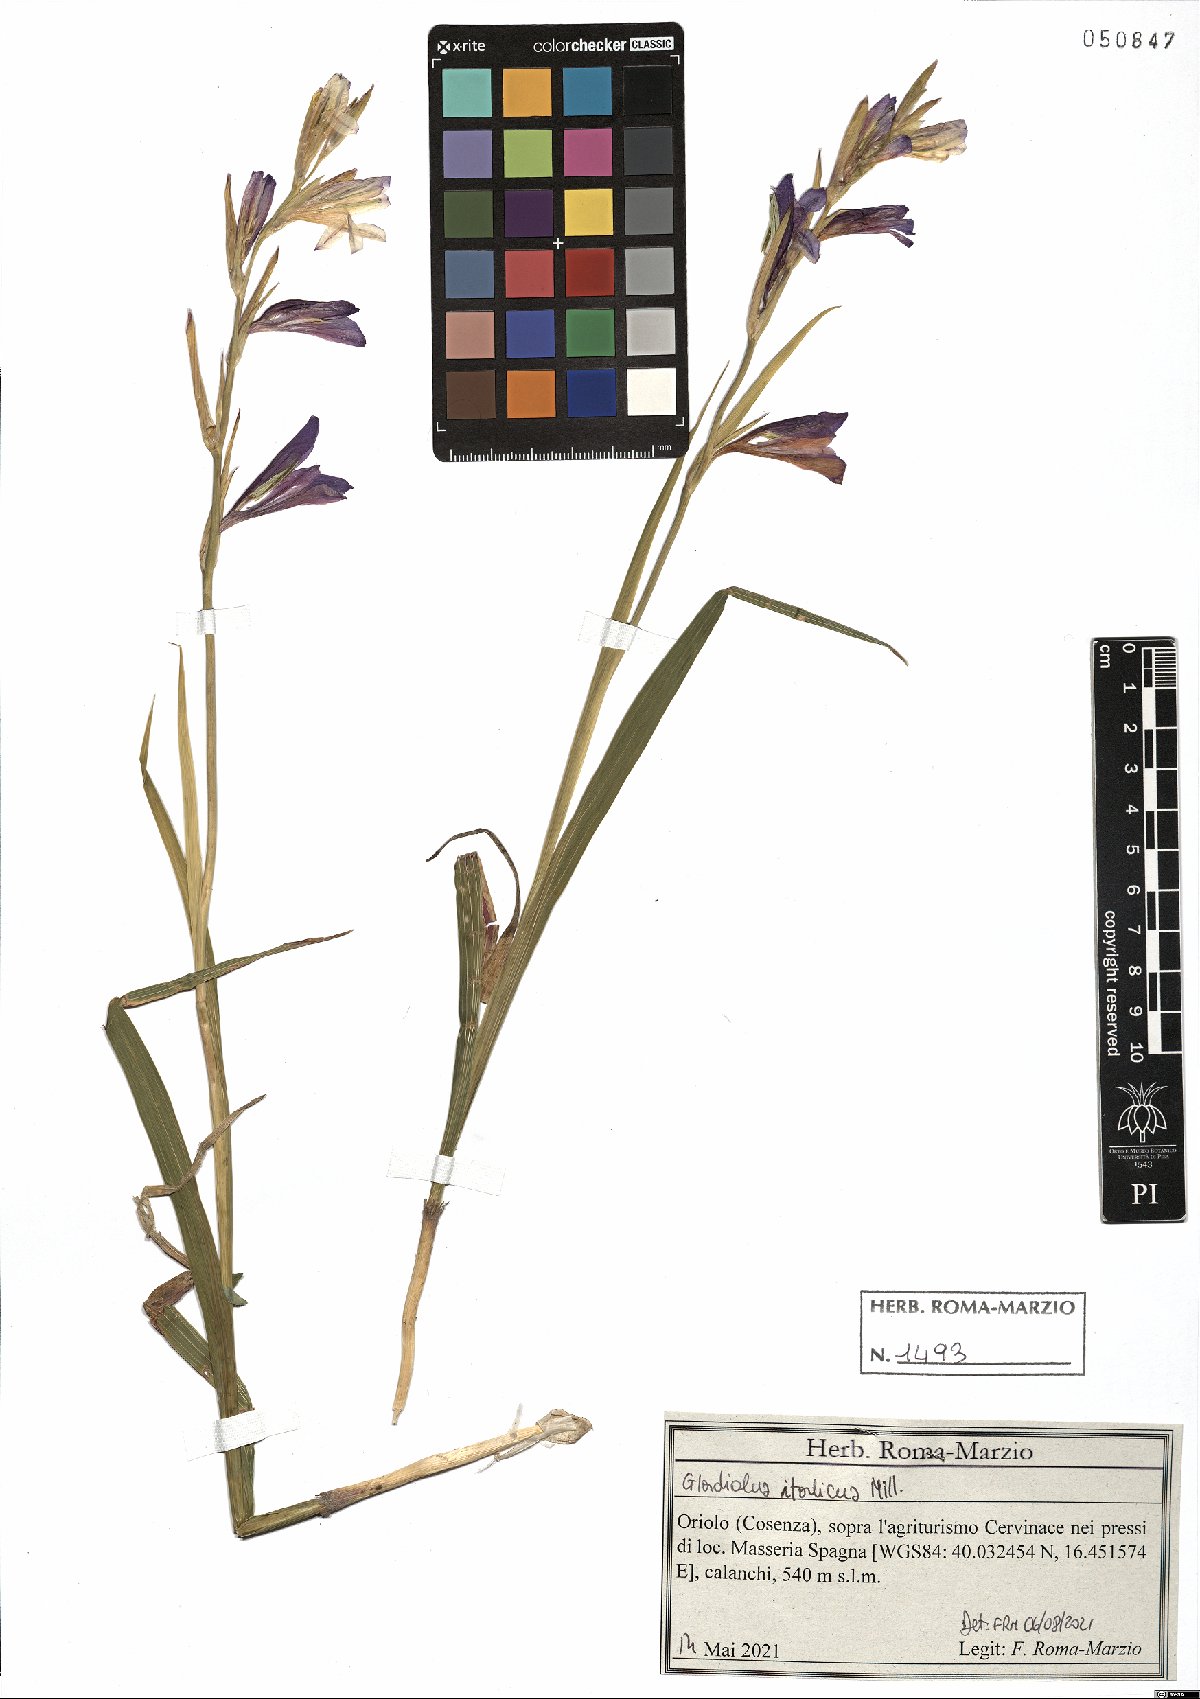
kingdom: Plantae
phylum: Tracheophyta
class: Liliopsida
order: Asparagales
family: Iridaceae
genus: Gladiolus
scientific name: Gladiolus italicus
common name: Field gladiolus
